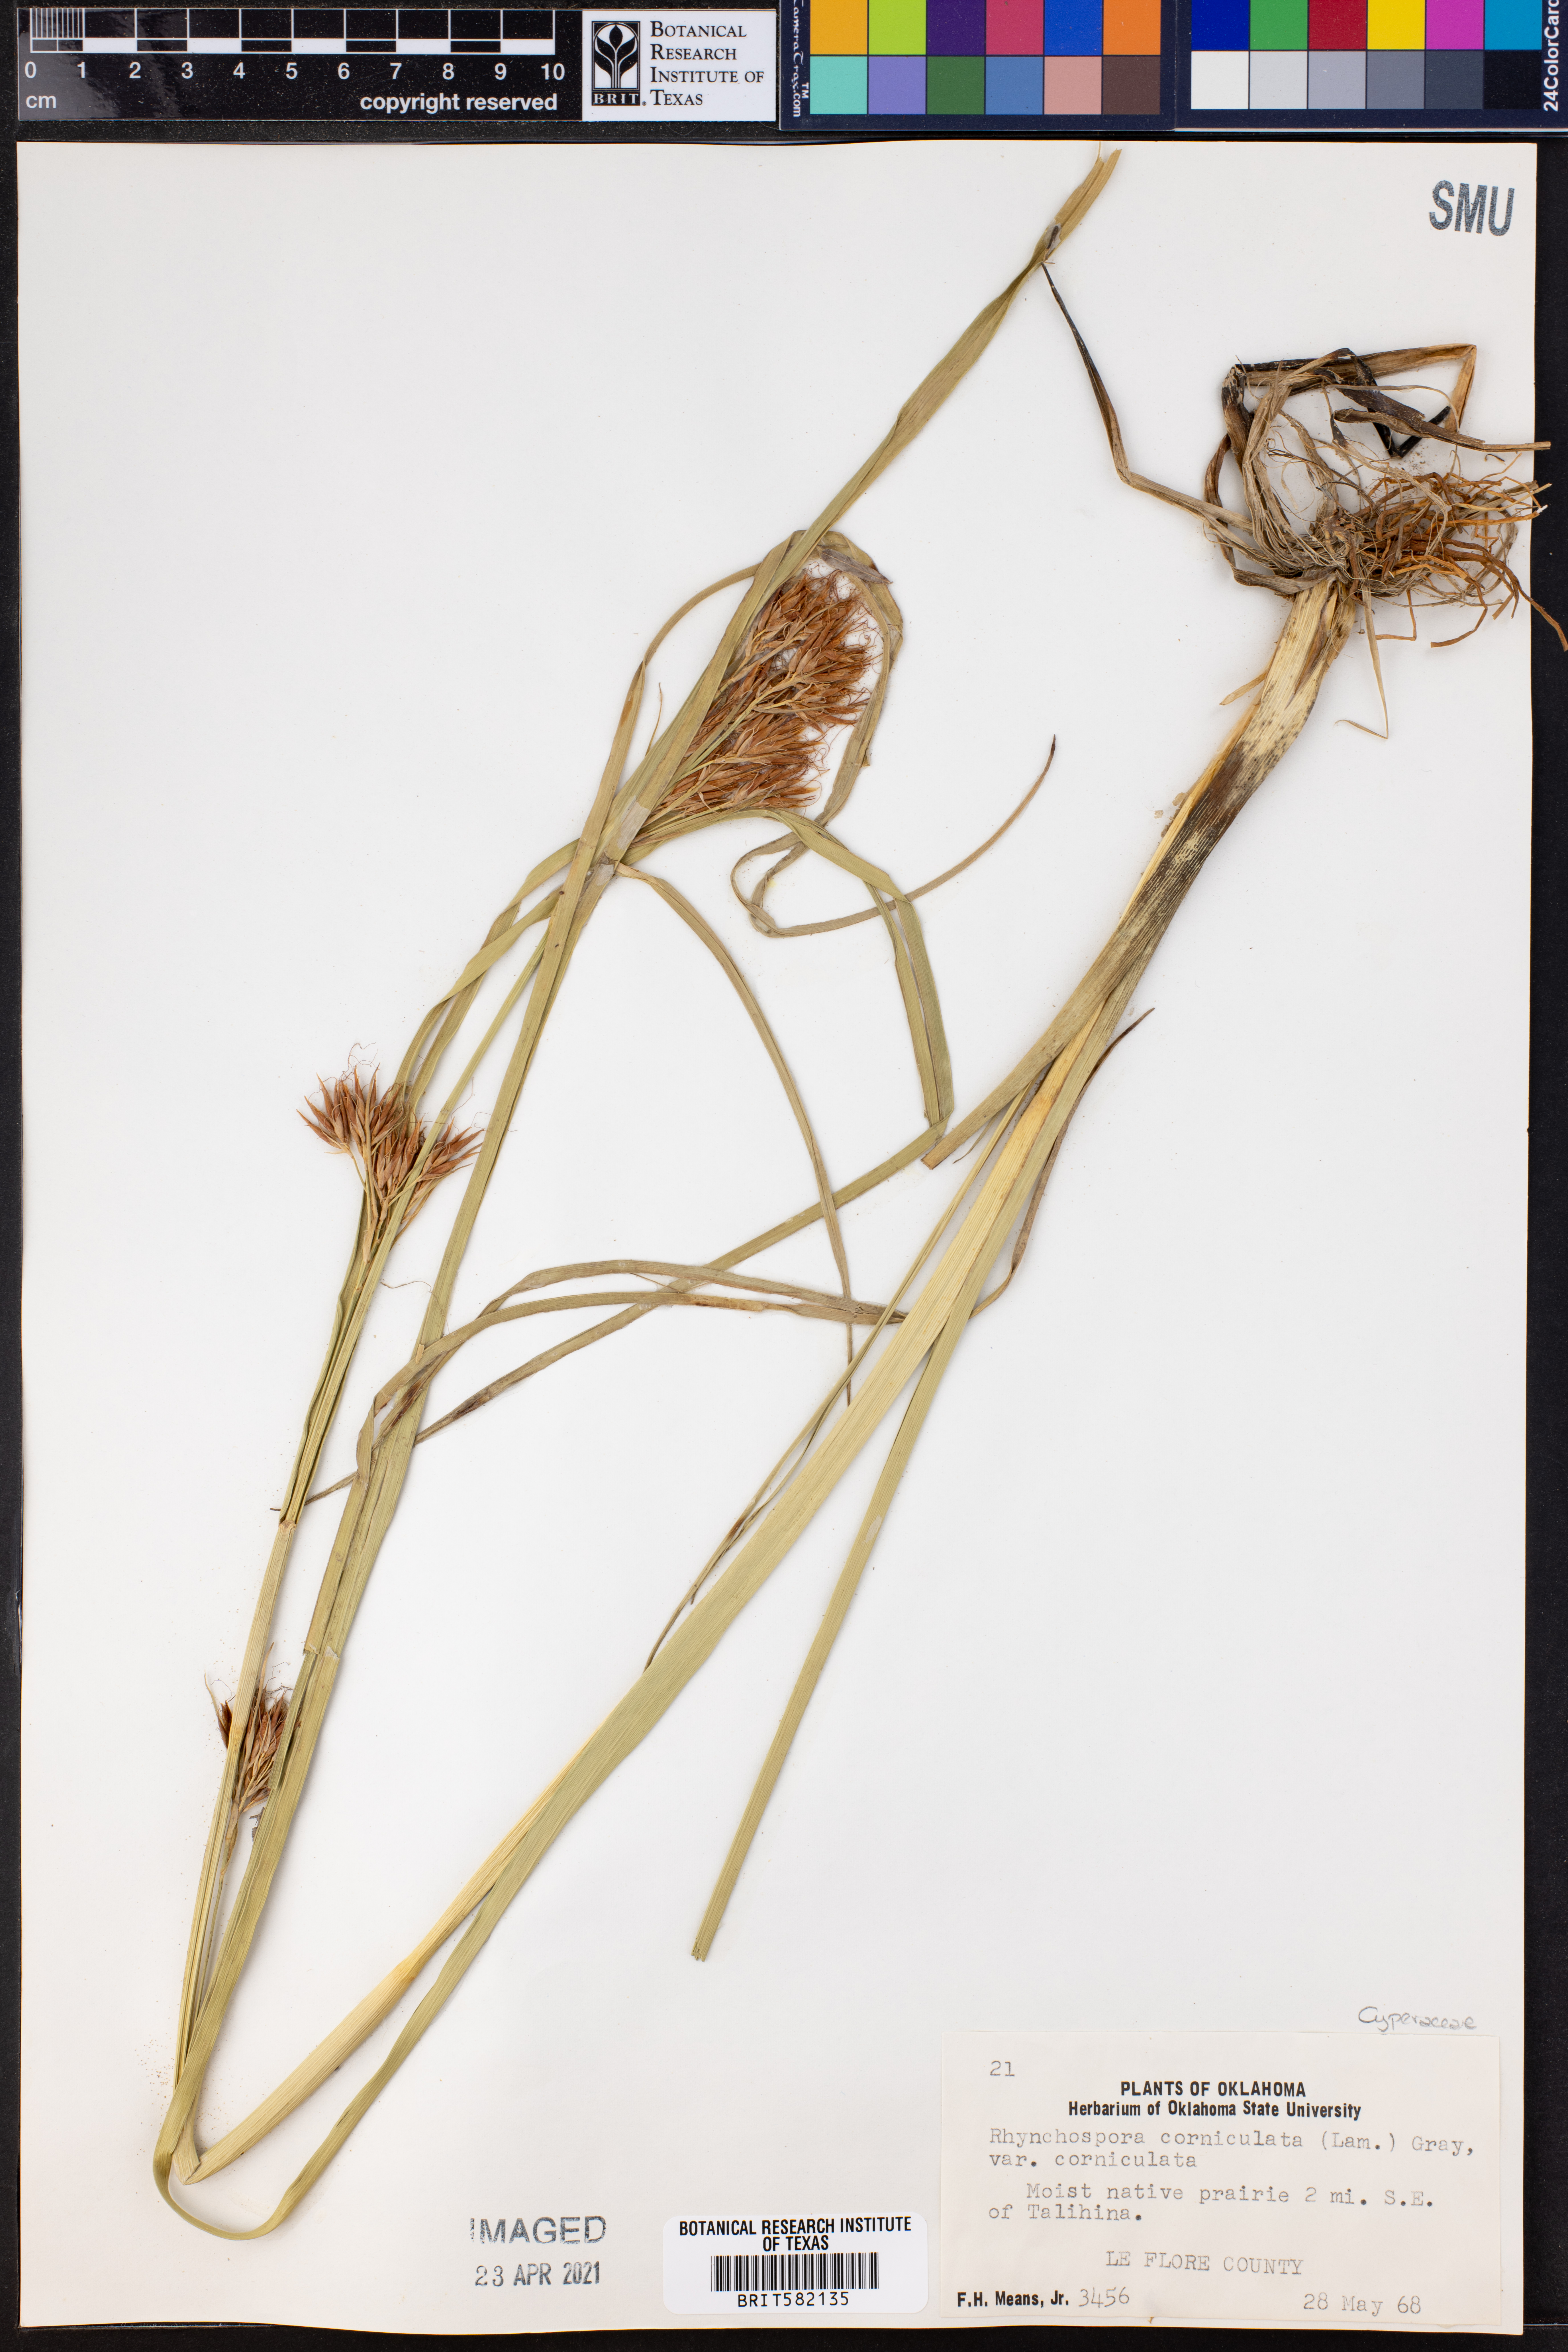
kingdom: Plantae
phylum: Tracheophyta
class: Liliopsida
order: Poales
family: Cyperaceae
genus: Rhynchospora
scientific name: Rhynchospora corniculata
